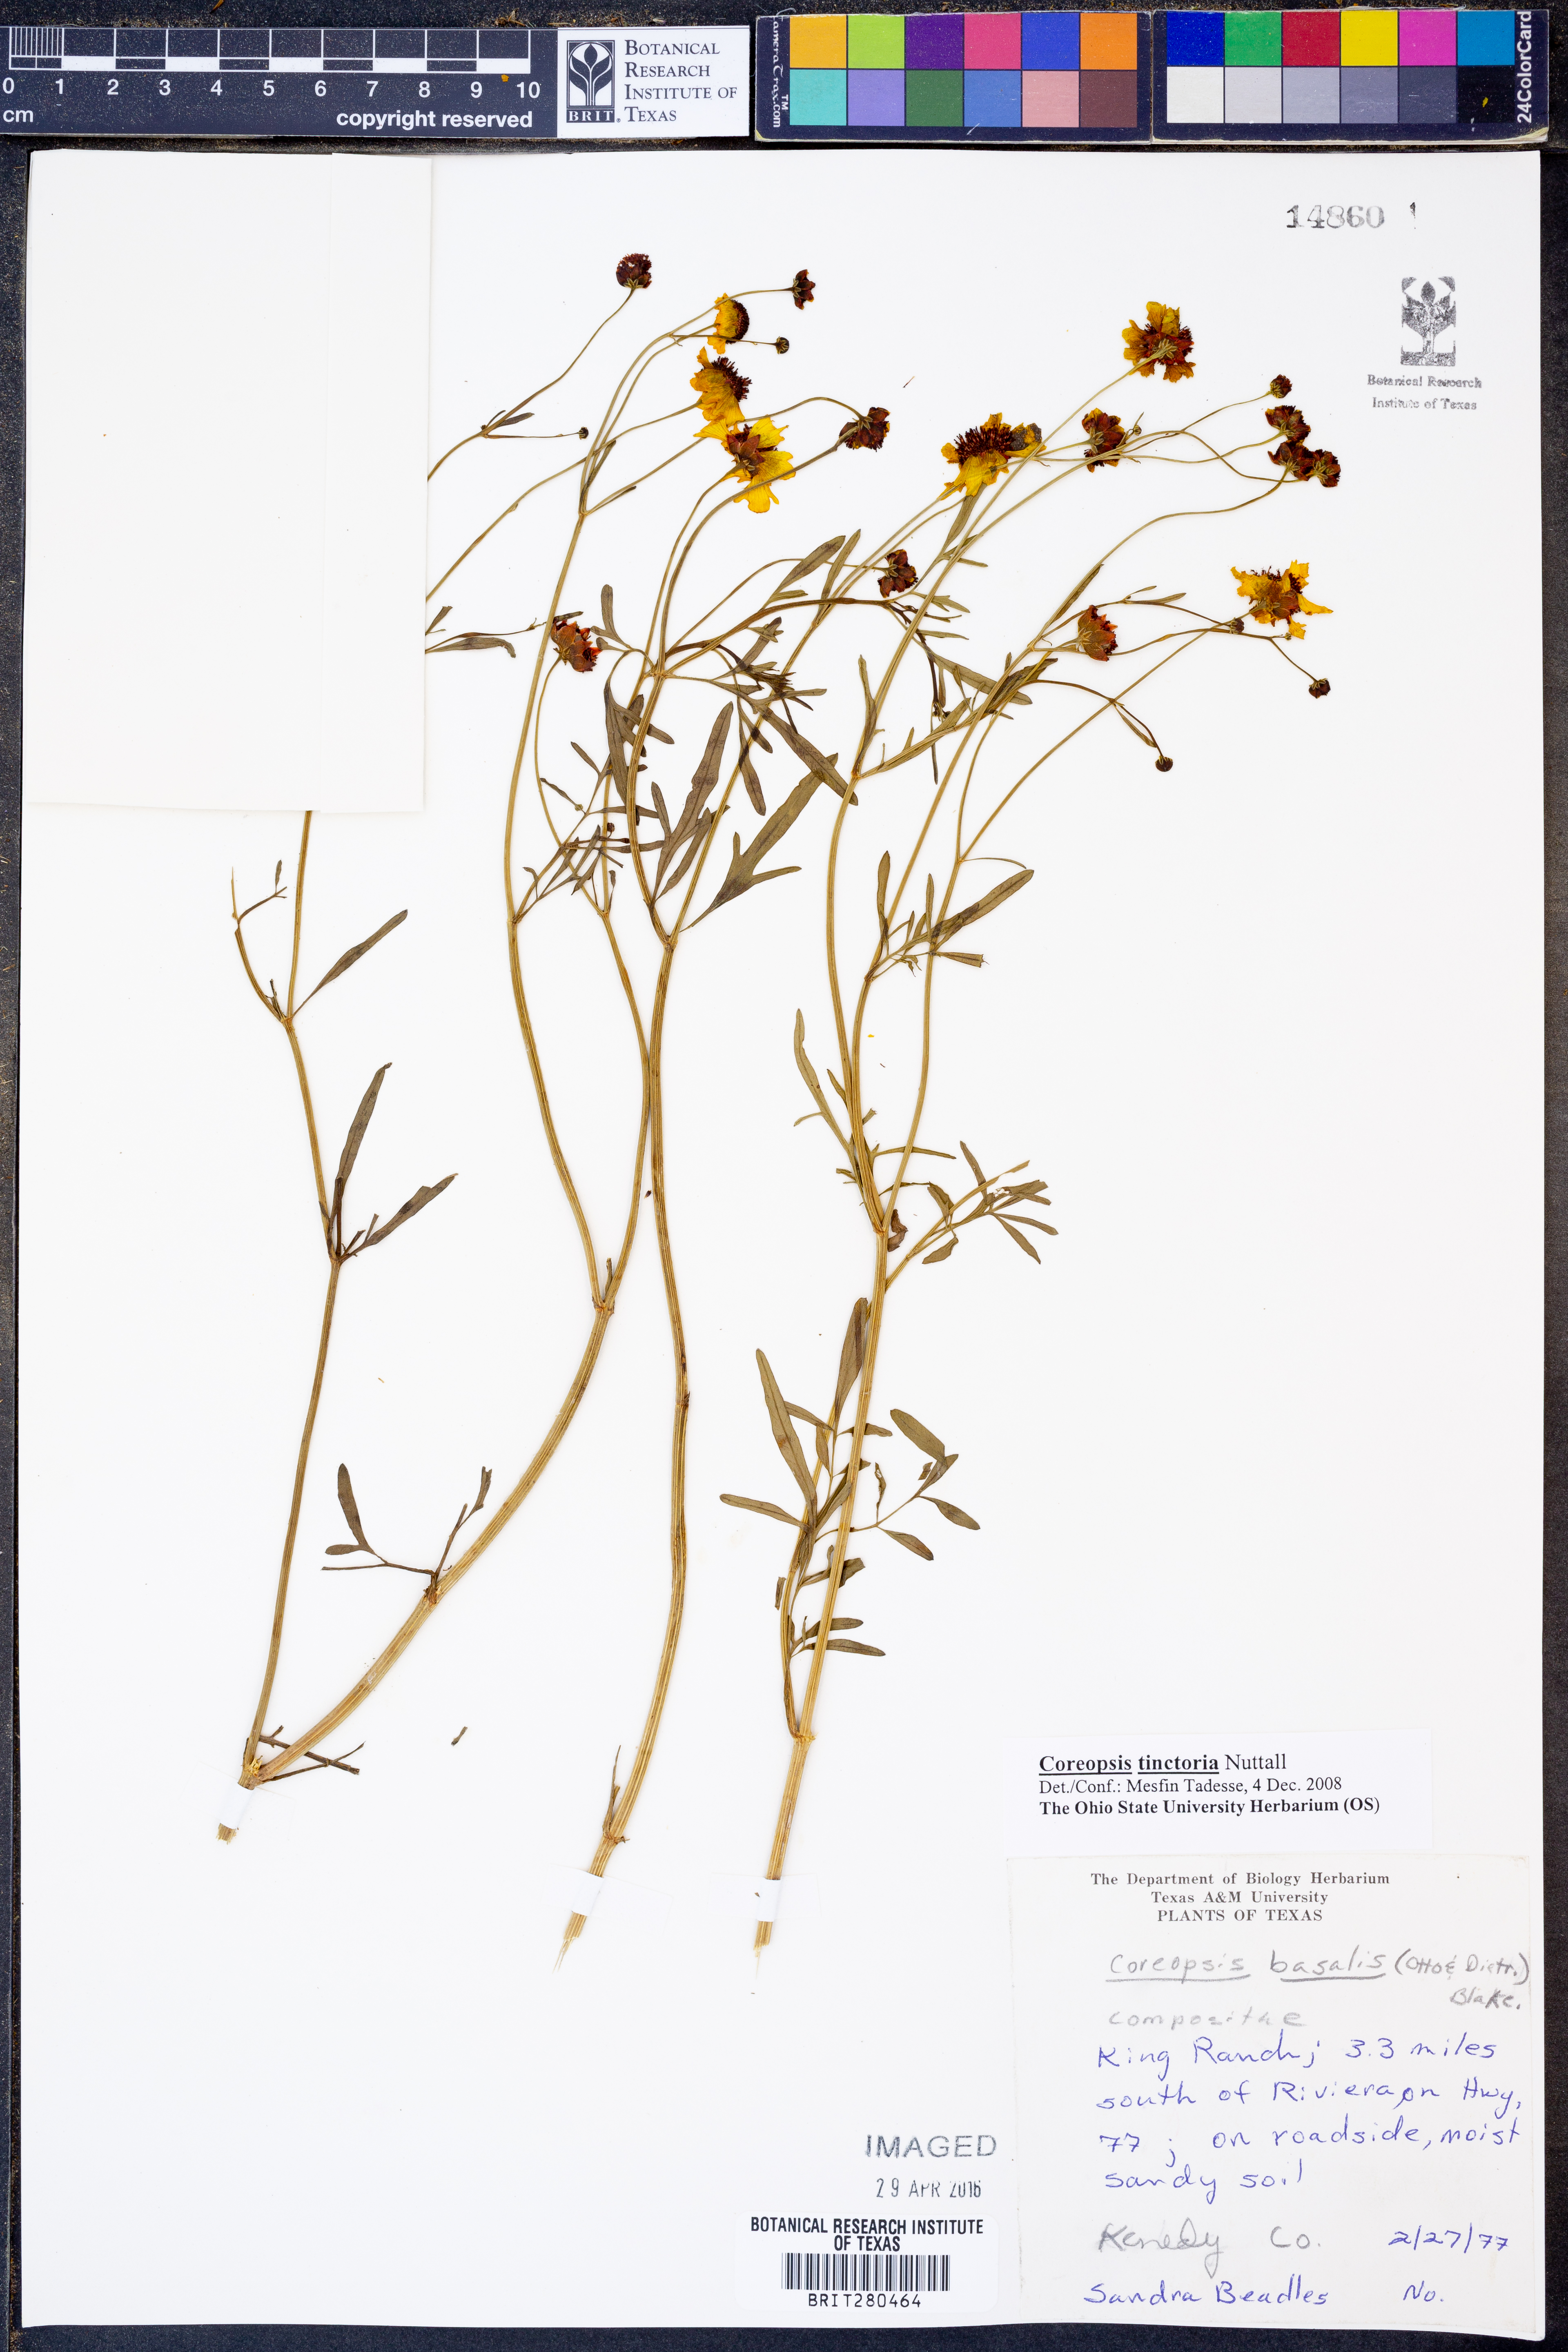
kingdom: Plantae
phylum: Tracheophyta
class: Magnoliopsida
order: Asterales
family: Asteraceae
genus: Coreopsis
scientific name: Coreopsis tinctoria
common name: Garden tickseed
